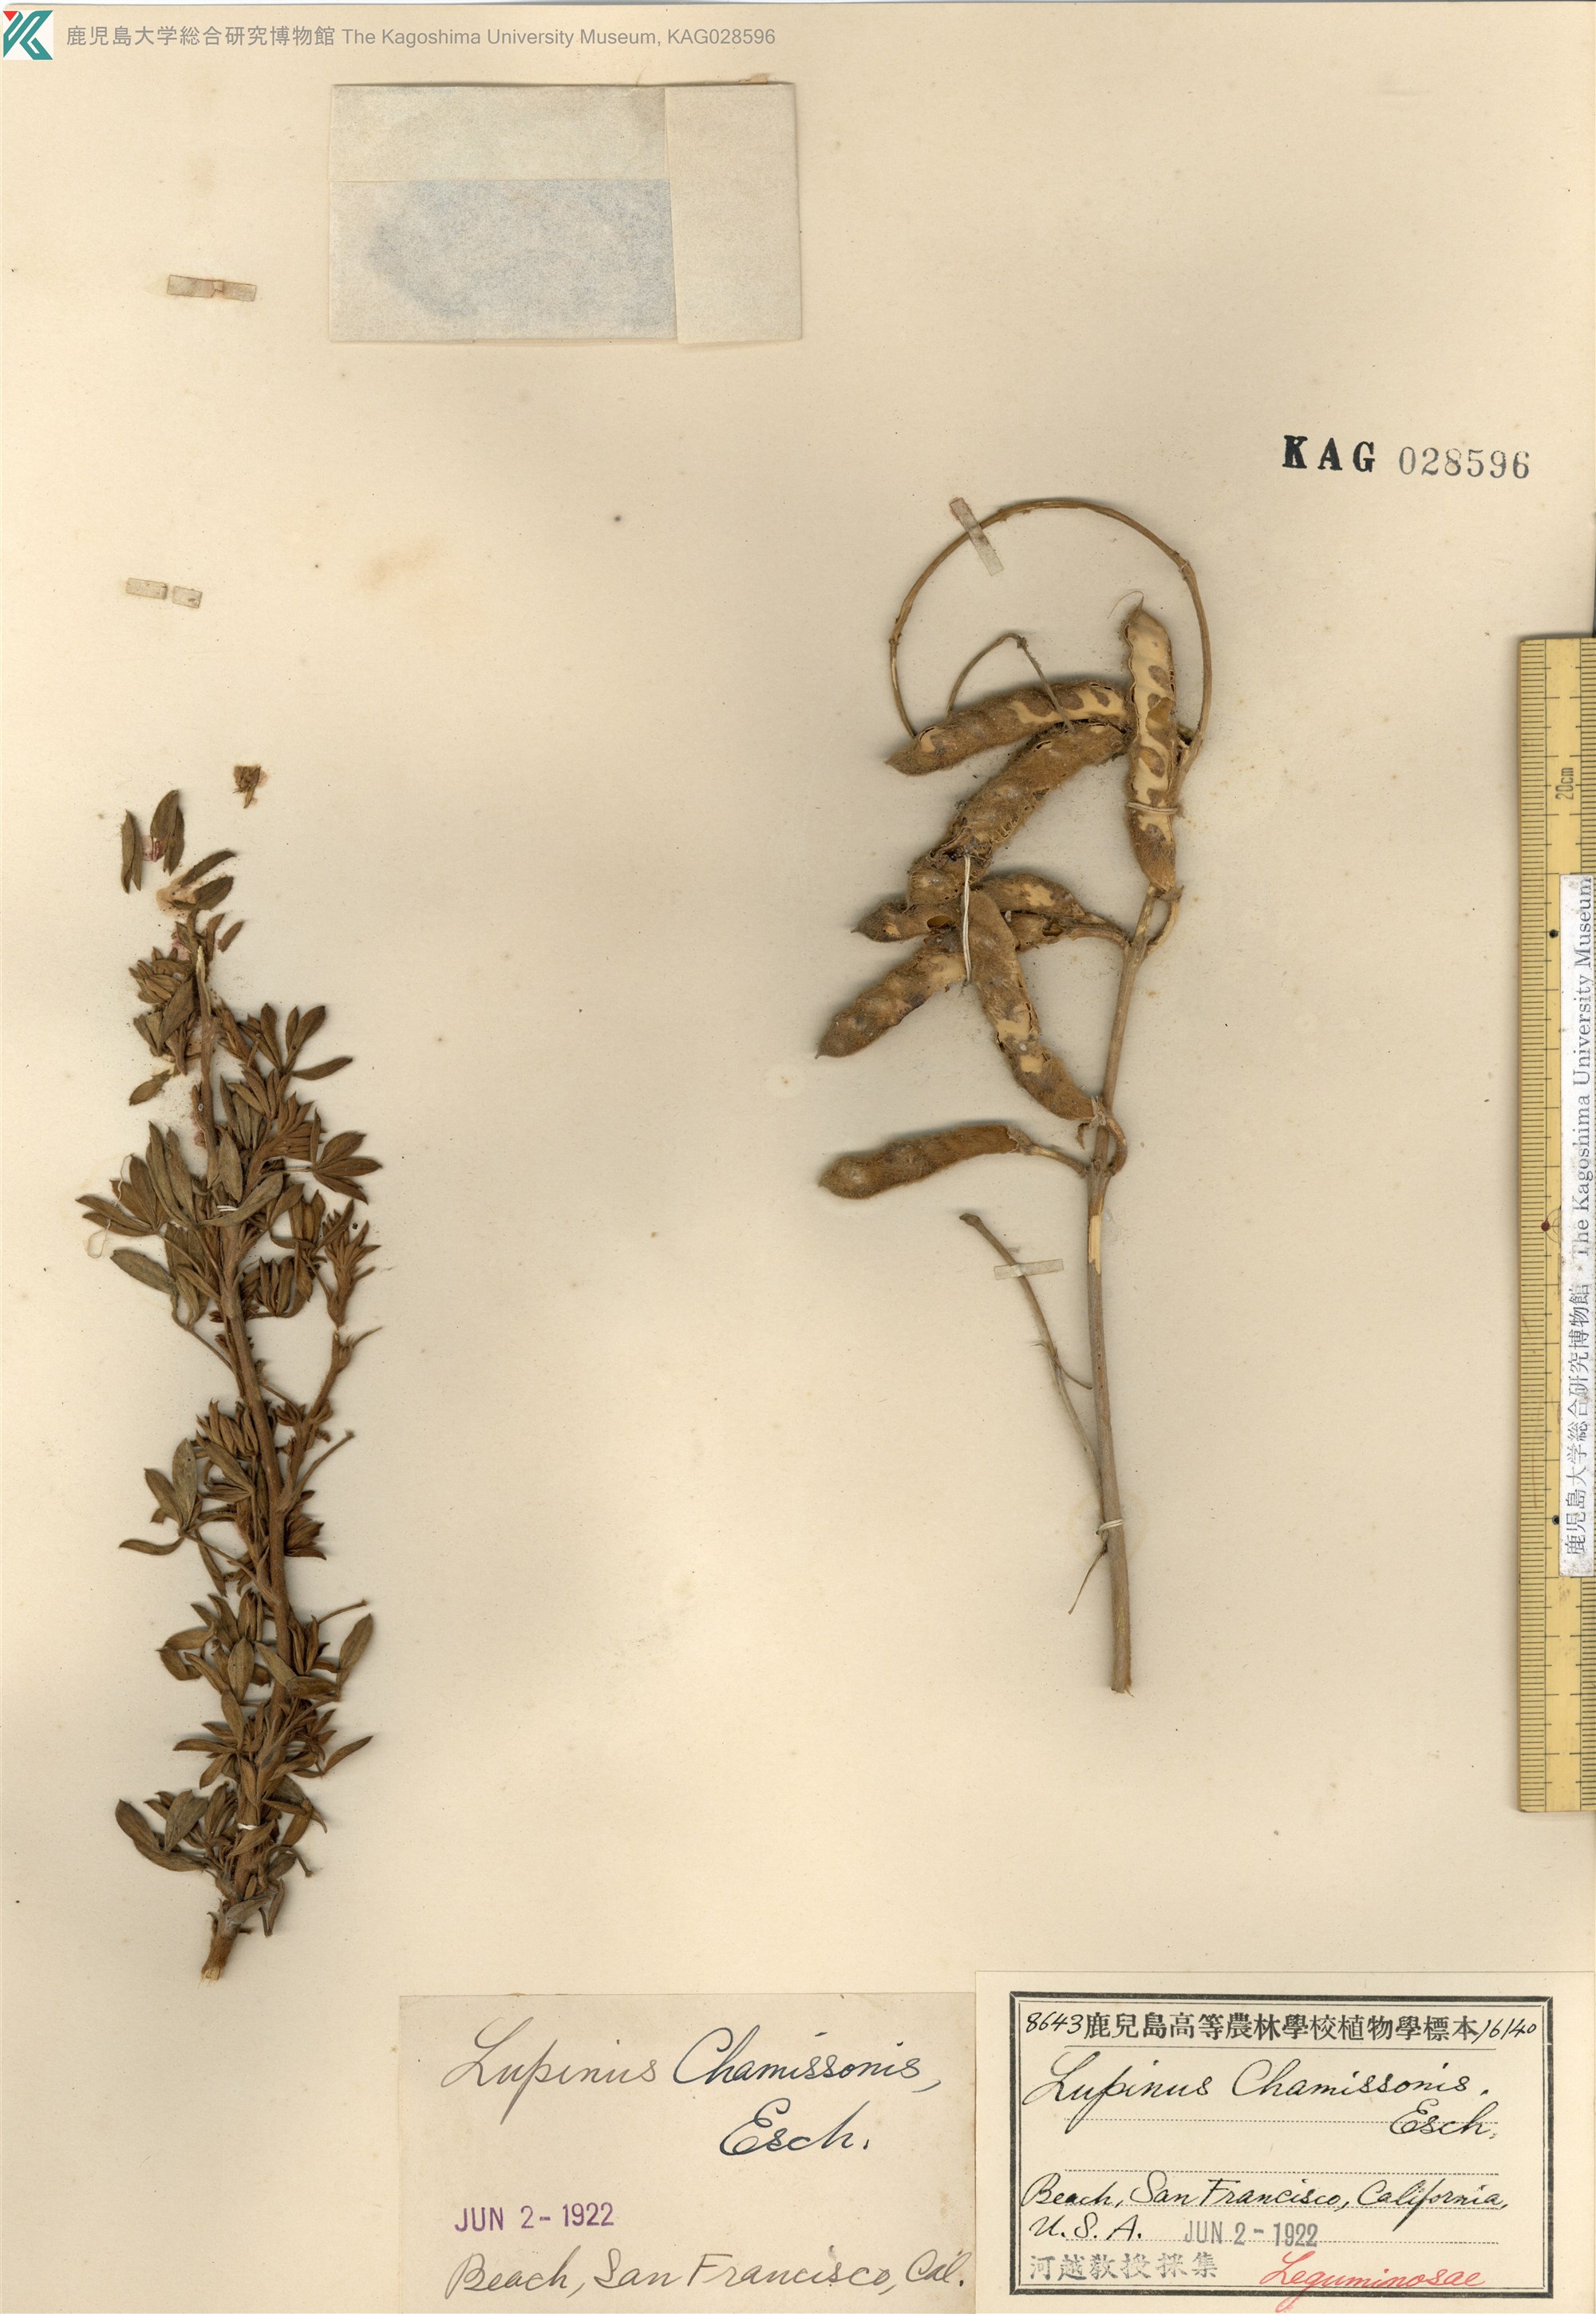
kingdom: Plantae
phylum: Tracheophyta
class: Magnoliopsida
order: Fabales
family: Fabaceae
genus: Lupinus
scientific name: Lupinus chamissonis
